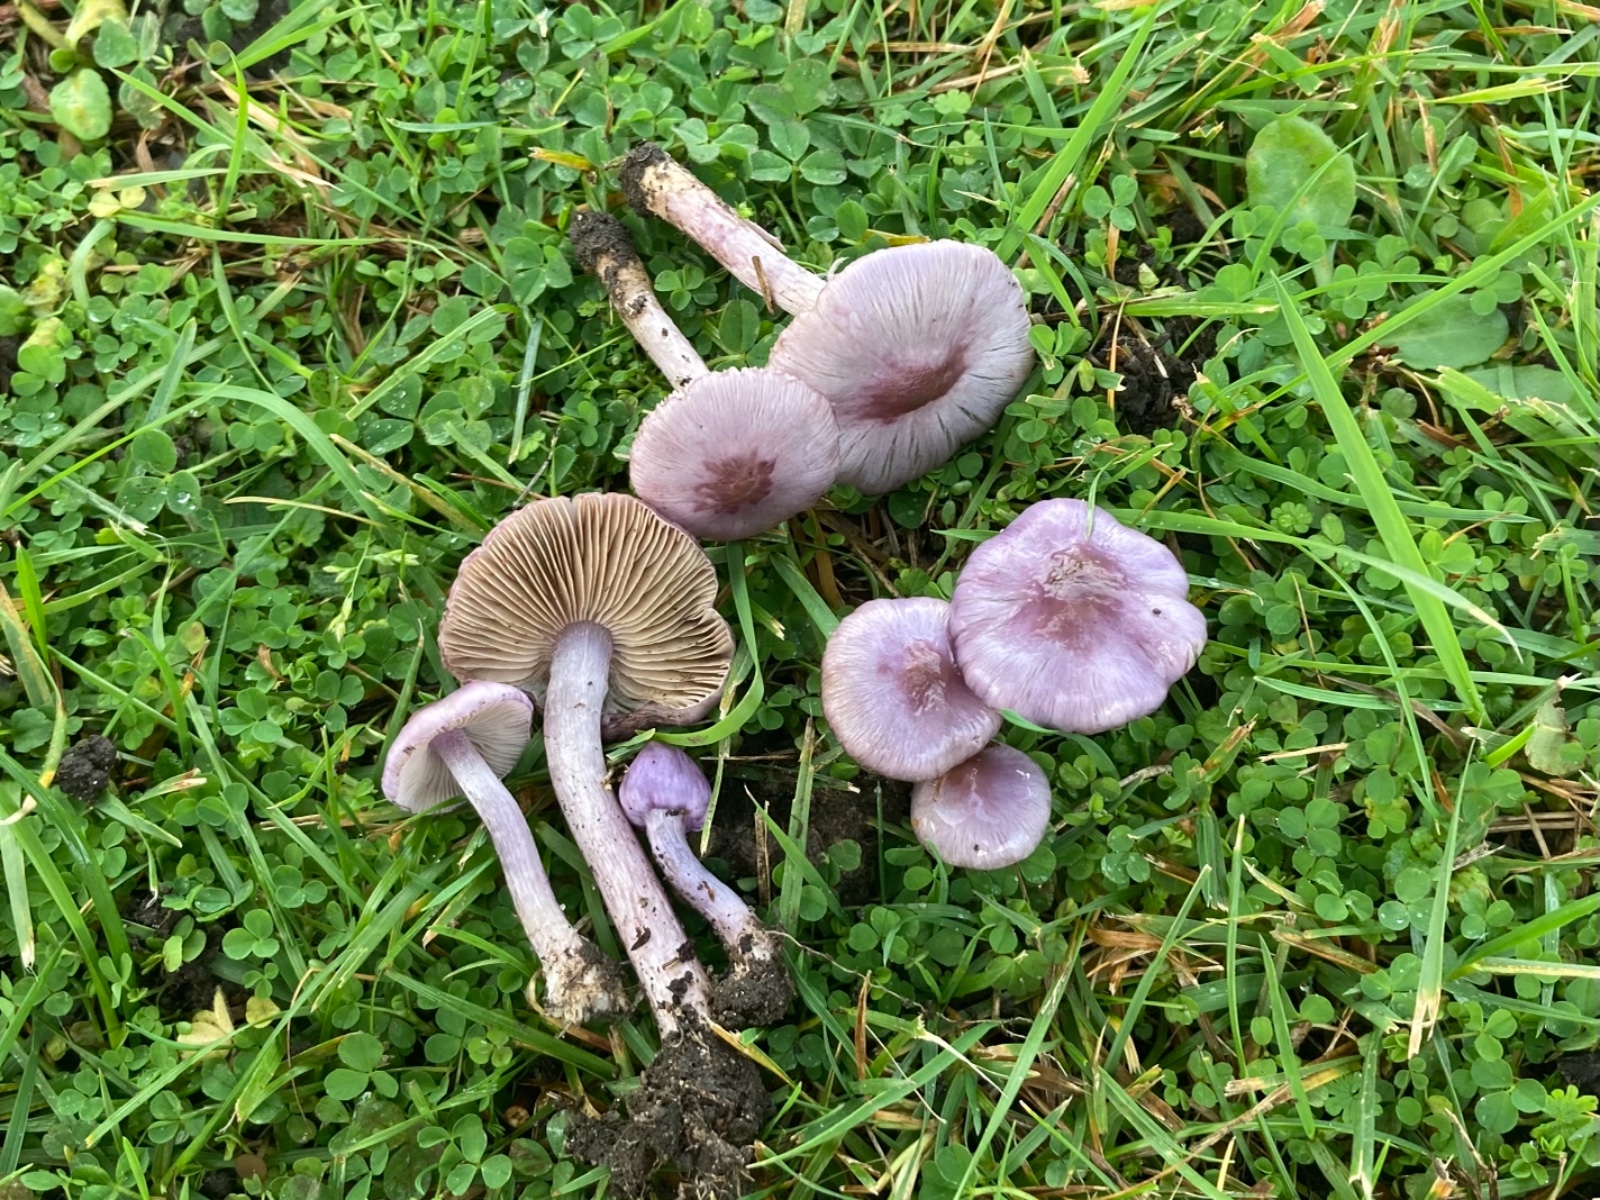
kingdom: Fungi
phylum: Basidiomycota
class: Agaricomycetes
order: Agaricales
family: Inocybaceae
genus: Inocybe
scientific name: Inocybe geophylla
